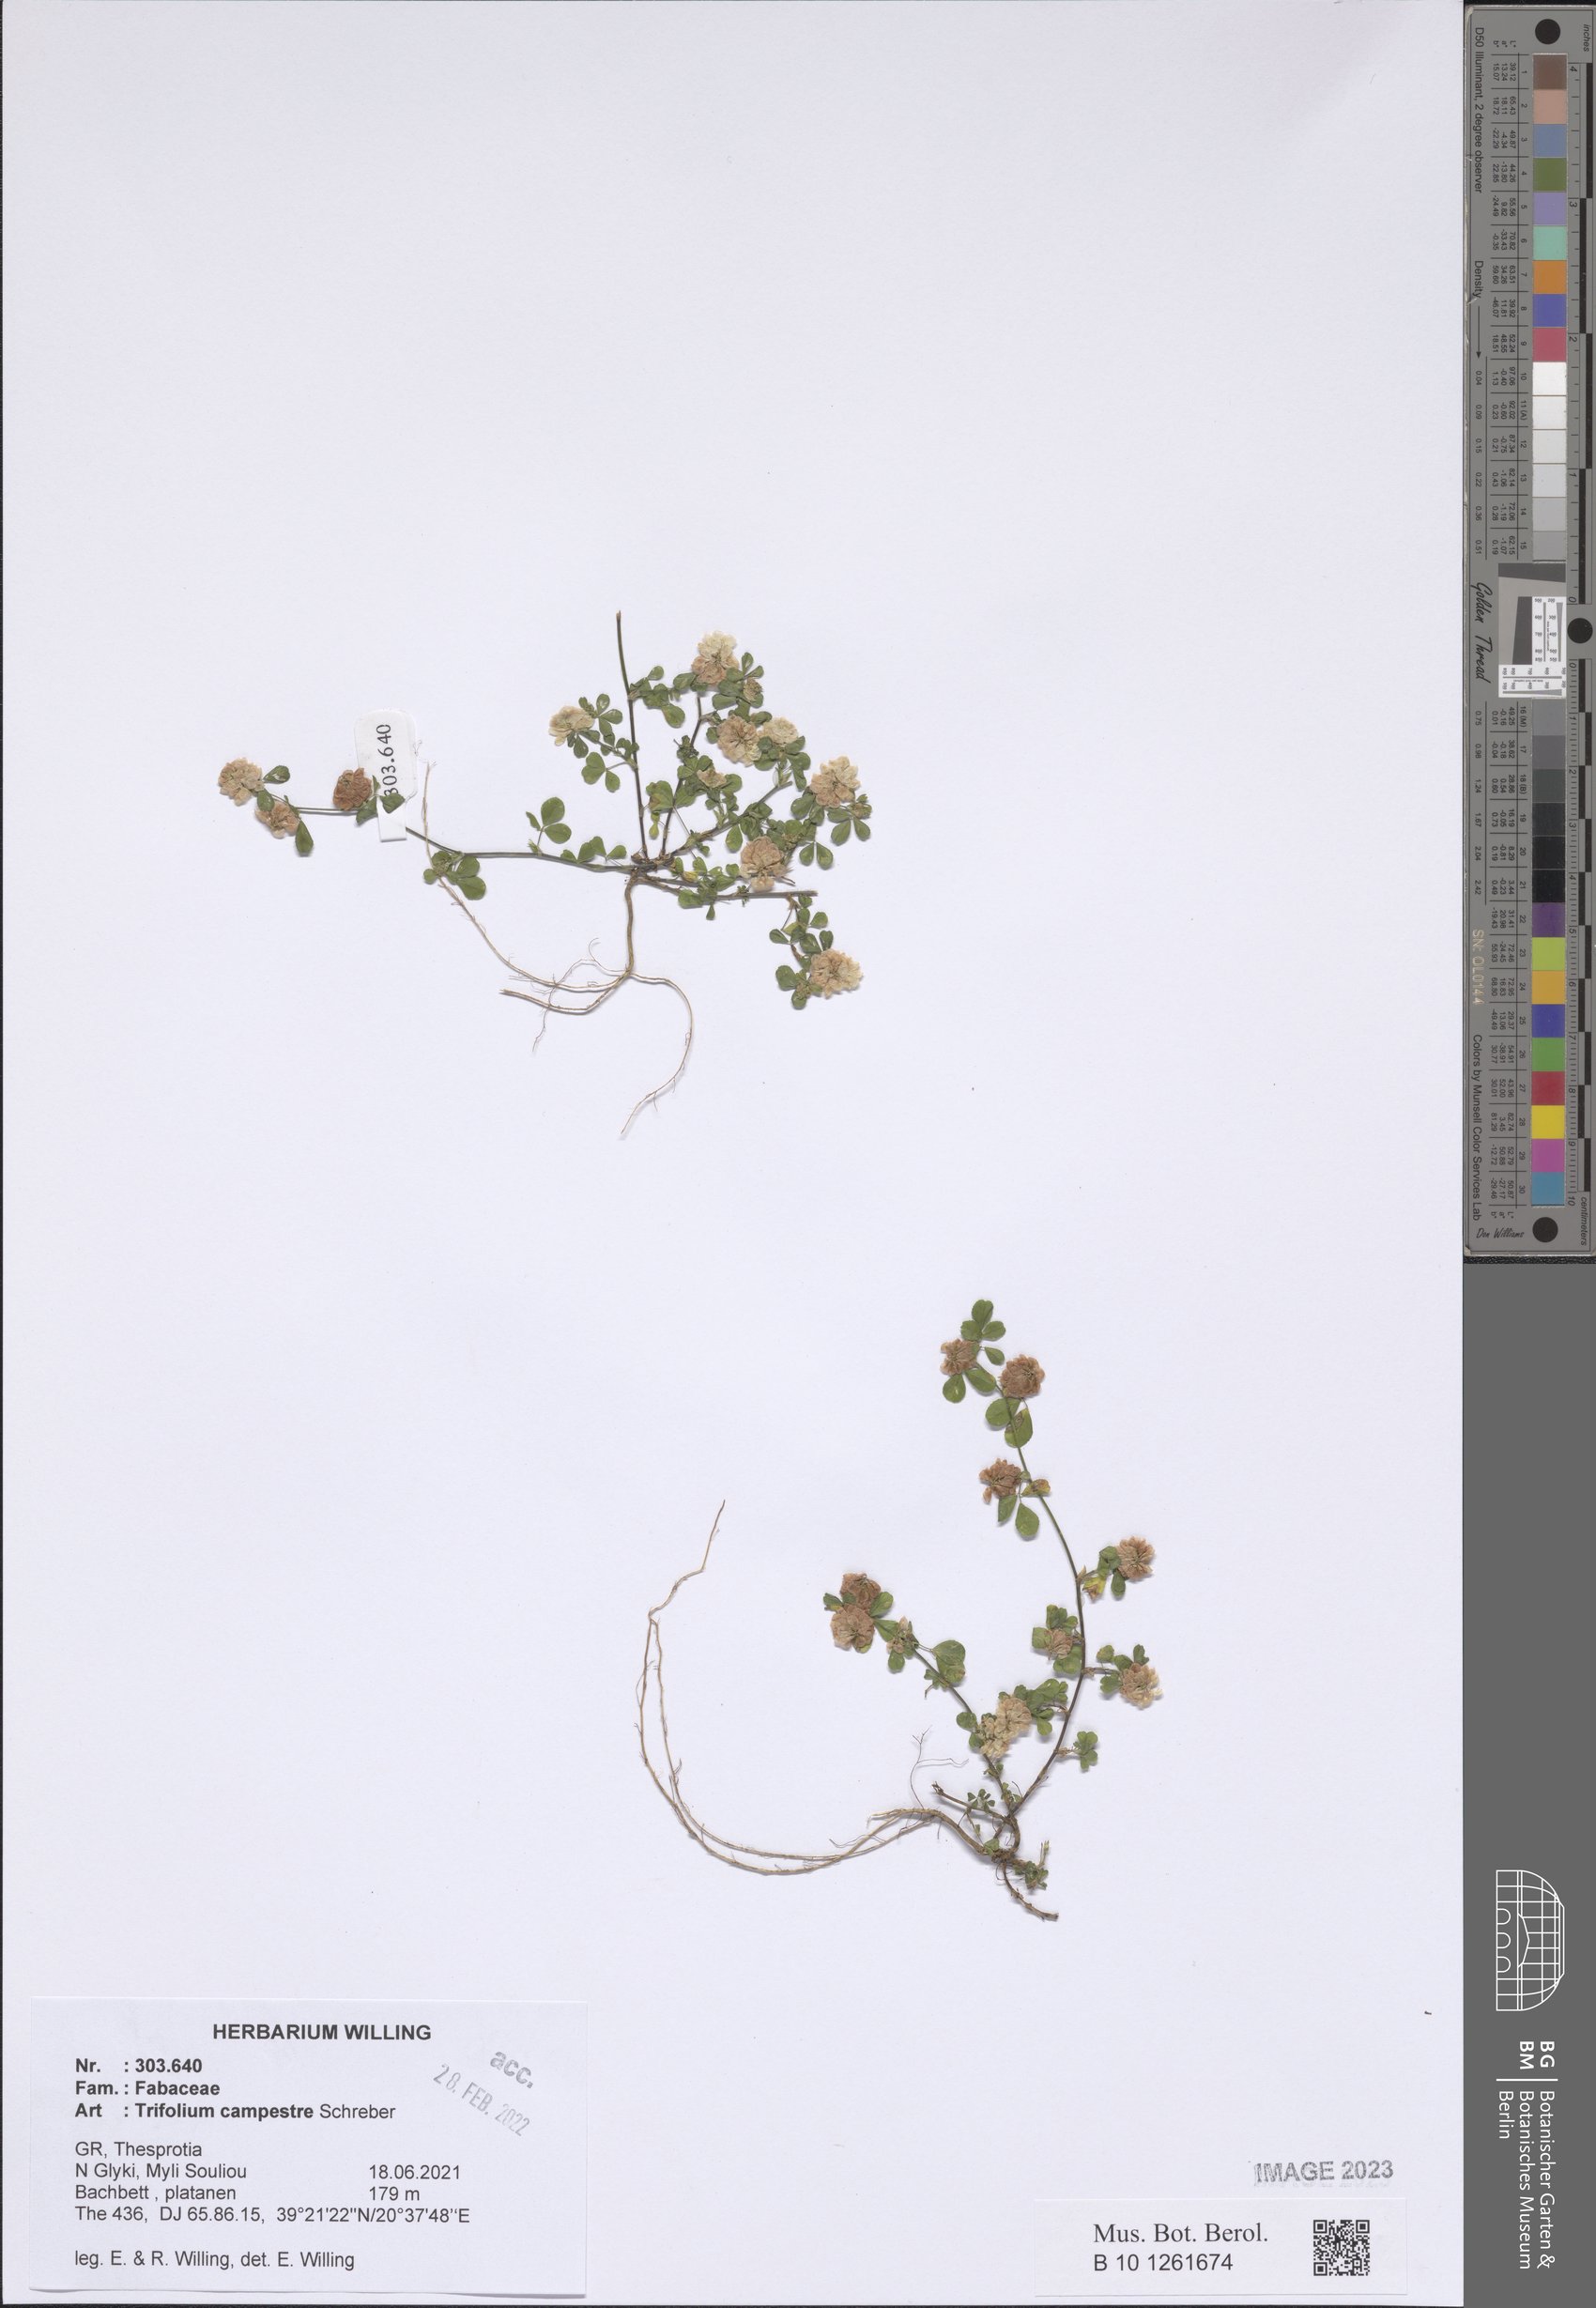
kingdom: Plantae
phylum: Tracheophyta
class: Magnoliopsida
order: Fabales
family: Fabaceae
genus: Trifolium
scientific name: Trifolium campestre
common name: Field clover
